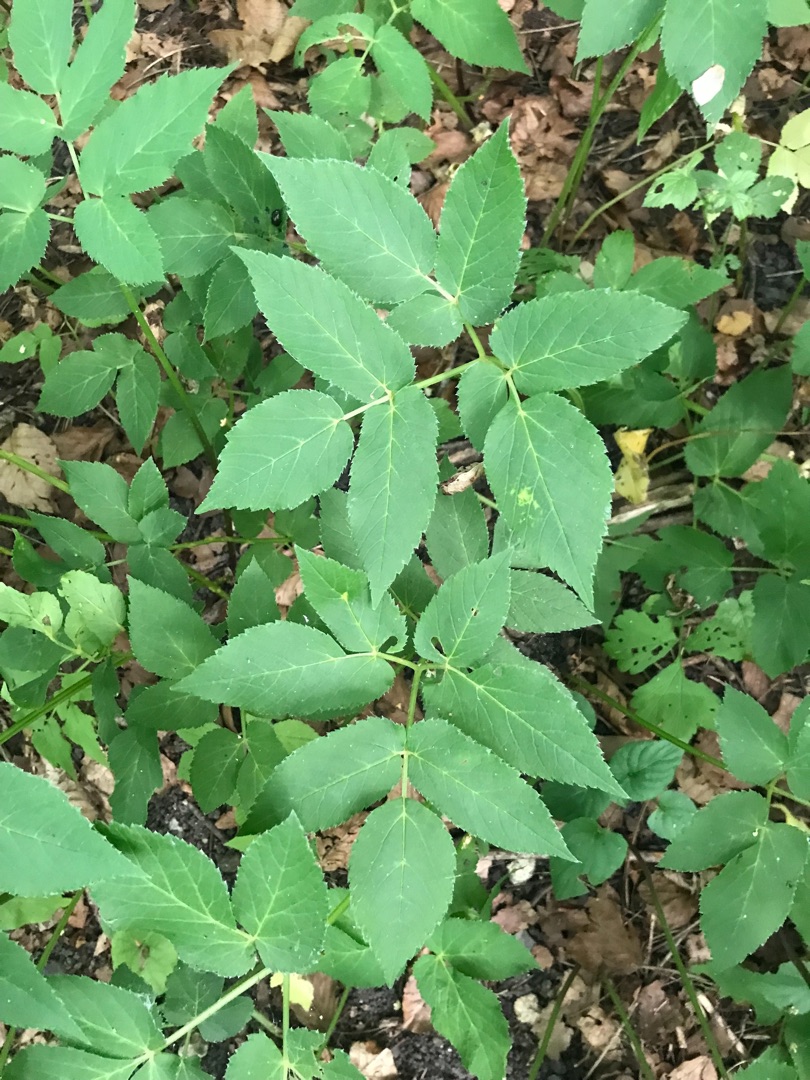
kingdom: Plantae
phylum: Tracheophyta
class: Magnoliopsida
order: Apiales
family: Apiaceae
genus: Aegopodium
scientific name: Aegopodium podagraria
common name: Skvalderkål
